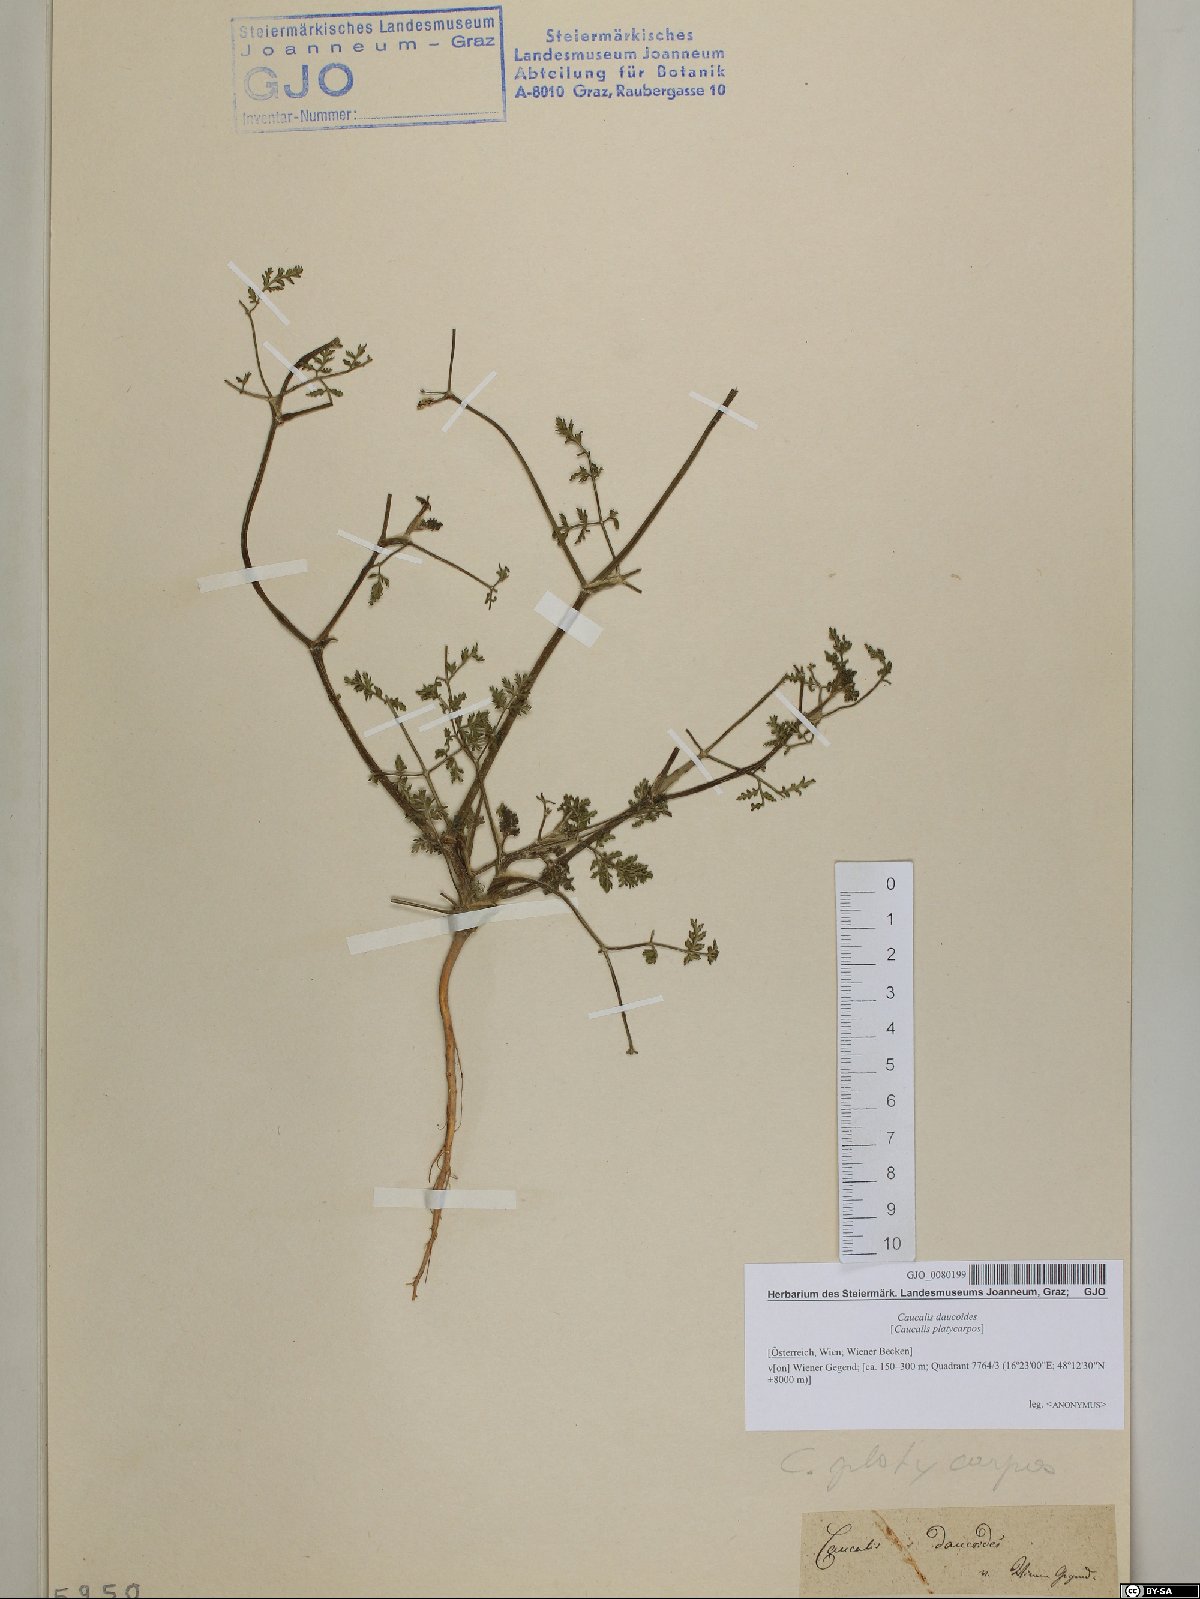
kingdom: Plantae
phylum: Tracheophyta
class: Magnoliopsida
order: Apiales
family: Apiaceae
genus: Orlaya
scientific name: Orlaya daucoides
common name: Flat-fruit orlaya
